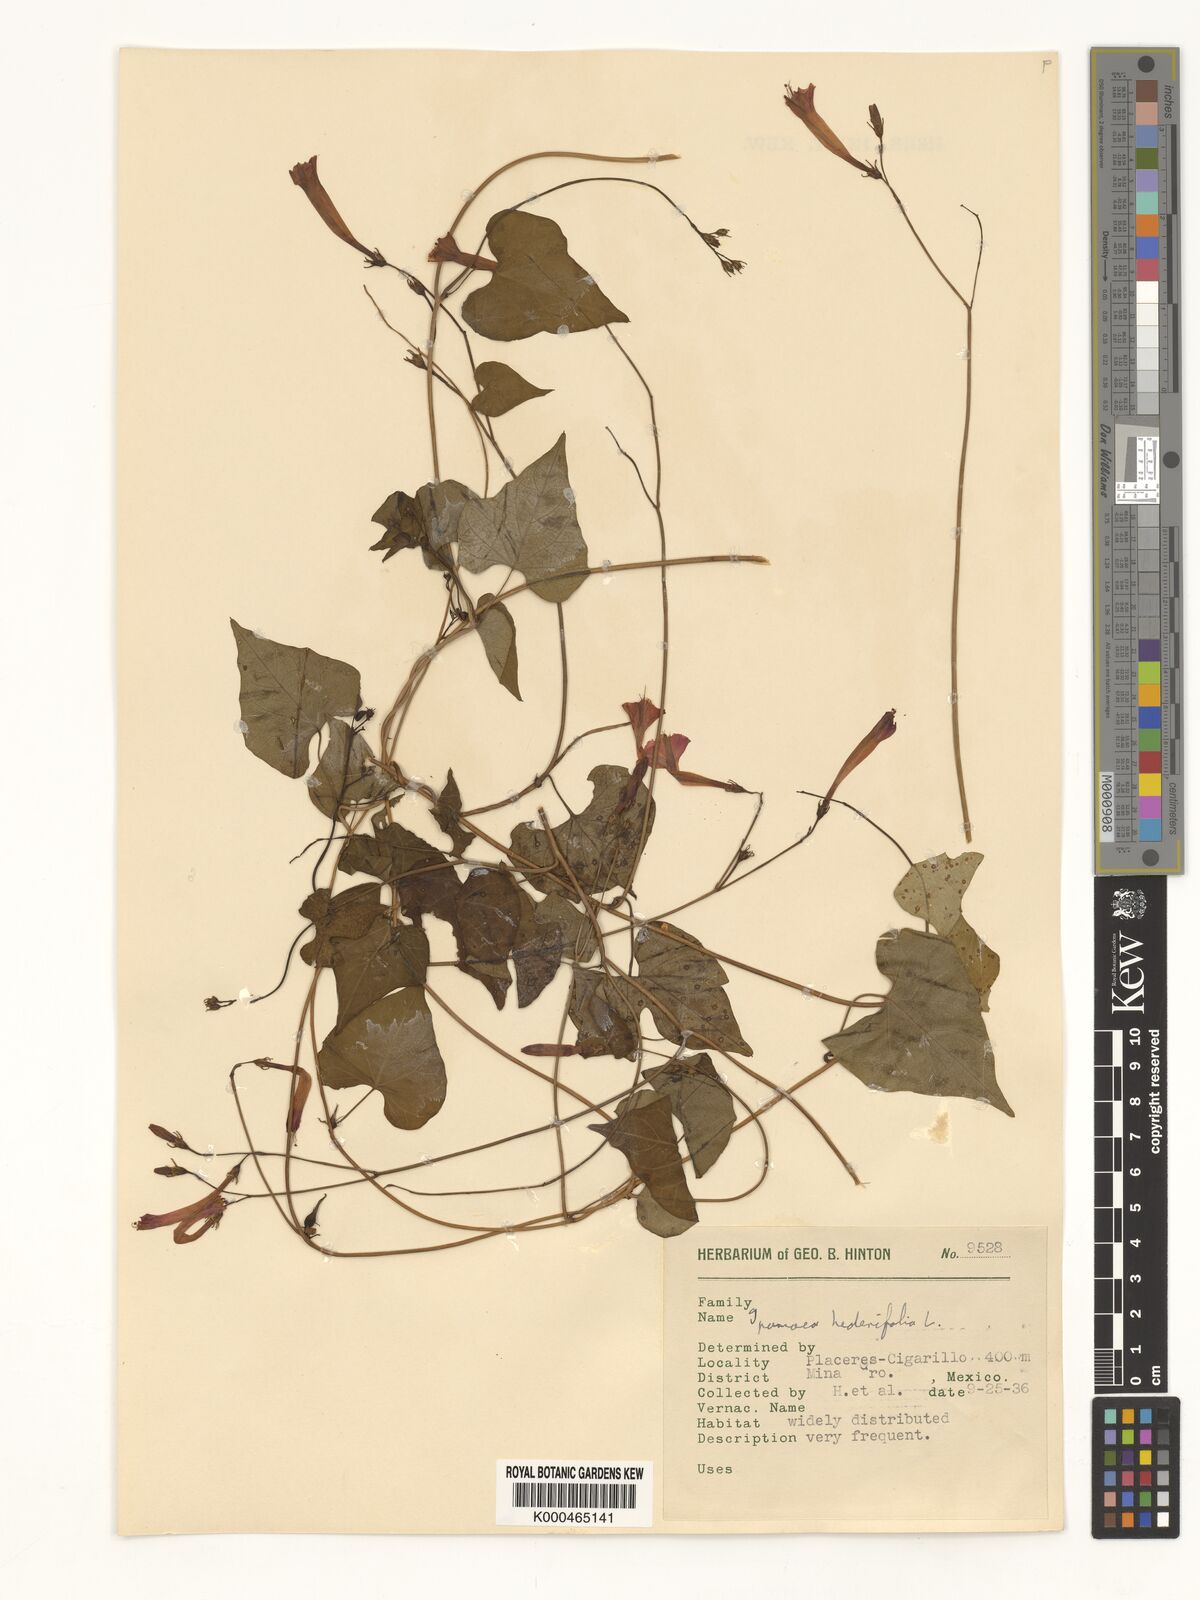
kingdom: Plantae
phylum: Tracheophyta
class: Magnoliopsida
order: Solanales
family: Convolvulaceae
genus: Ipomoea
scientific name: Ipomoea hederifolia
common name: Ivy-leaf morning-glory
